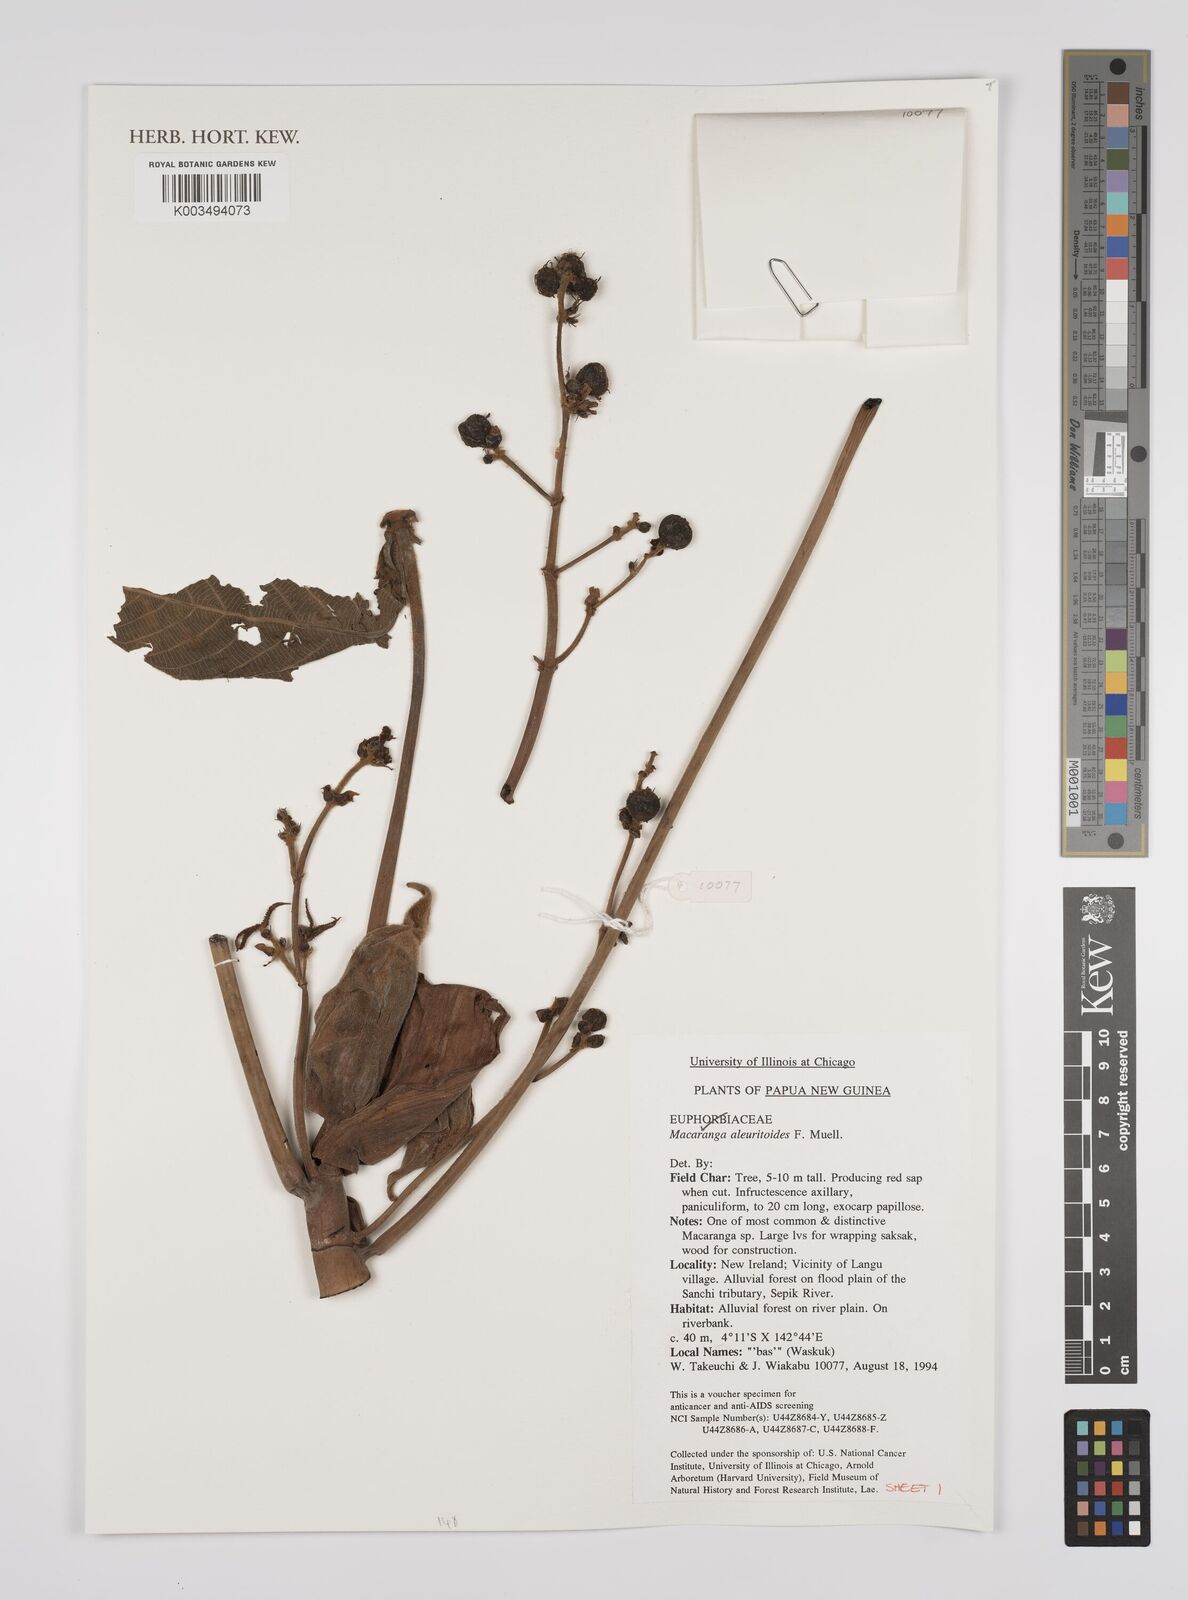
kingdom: Plantae
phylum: Tracheophyta
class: Magnoliopsida
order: Malpighiales
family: Euphorbiaceae
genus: Macaranga
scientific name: Macaranga aleuritoides
